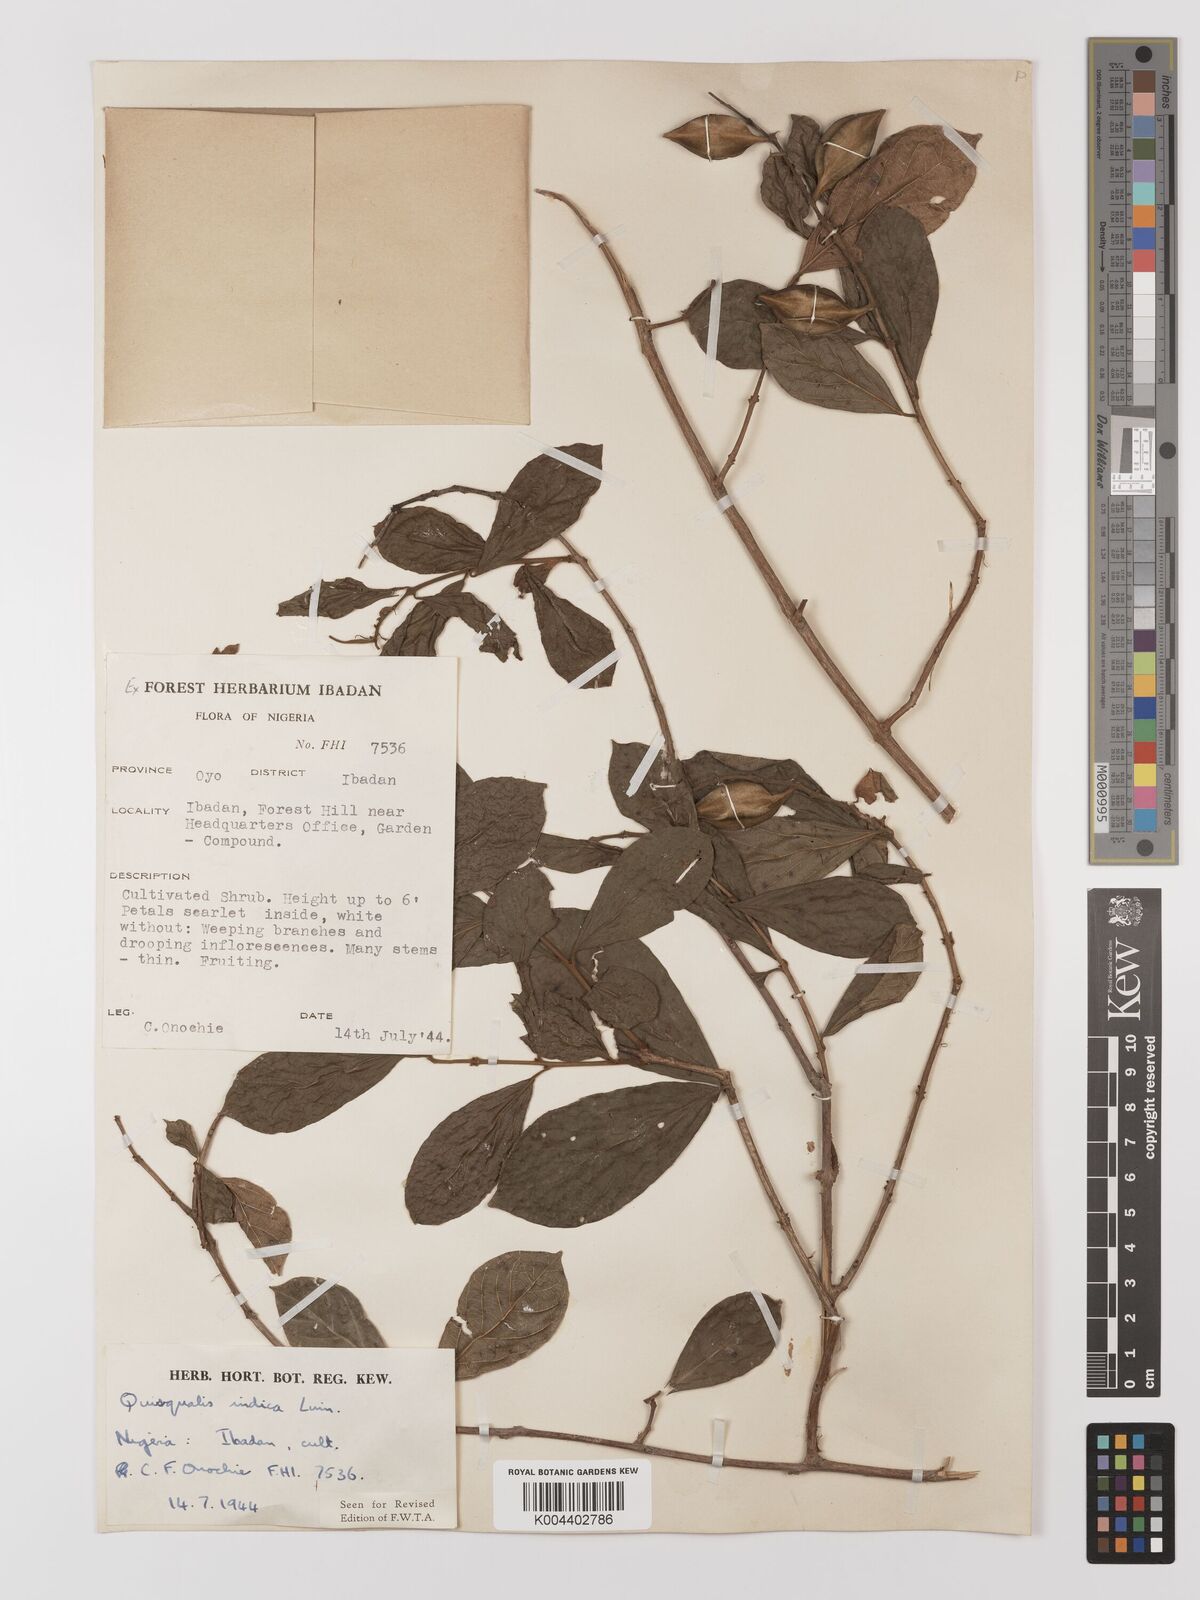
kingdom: Plantae
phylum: Tracheophyta
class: Magnoliopsida
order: Myrtales
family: Combretaceae
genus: Combretum
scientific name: Combretum
